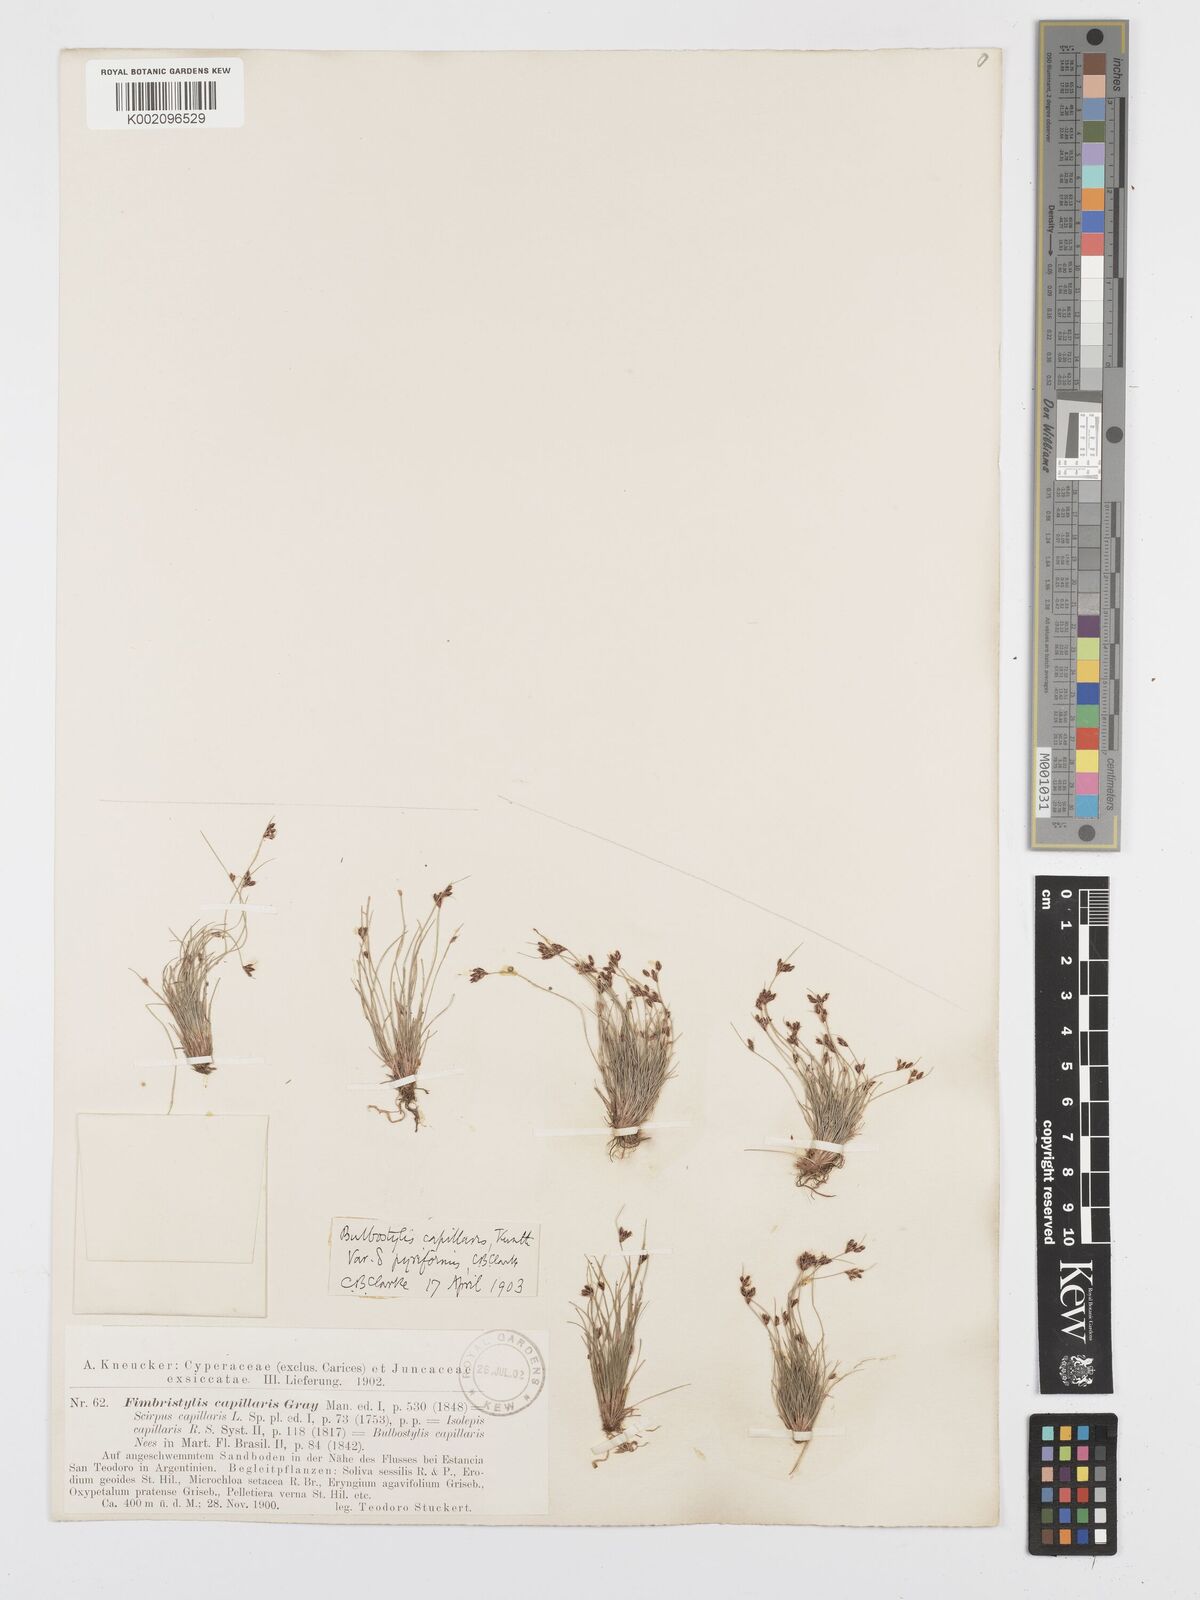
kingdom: Plantae
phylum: Tracheophyta
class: Liliopsida
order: Poales
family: Cyperaceae
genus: Bulbostylis
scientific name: Bulbostylis capillaris
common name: Densetuft hairsedge
